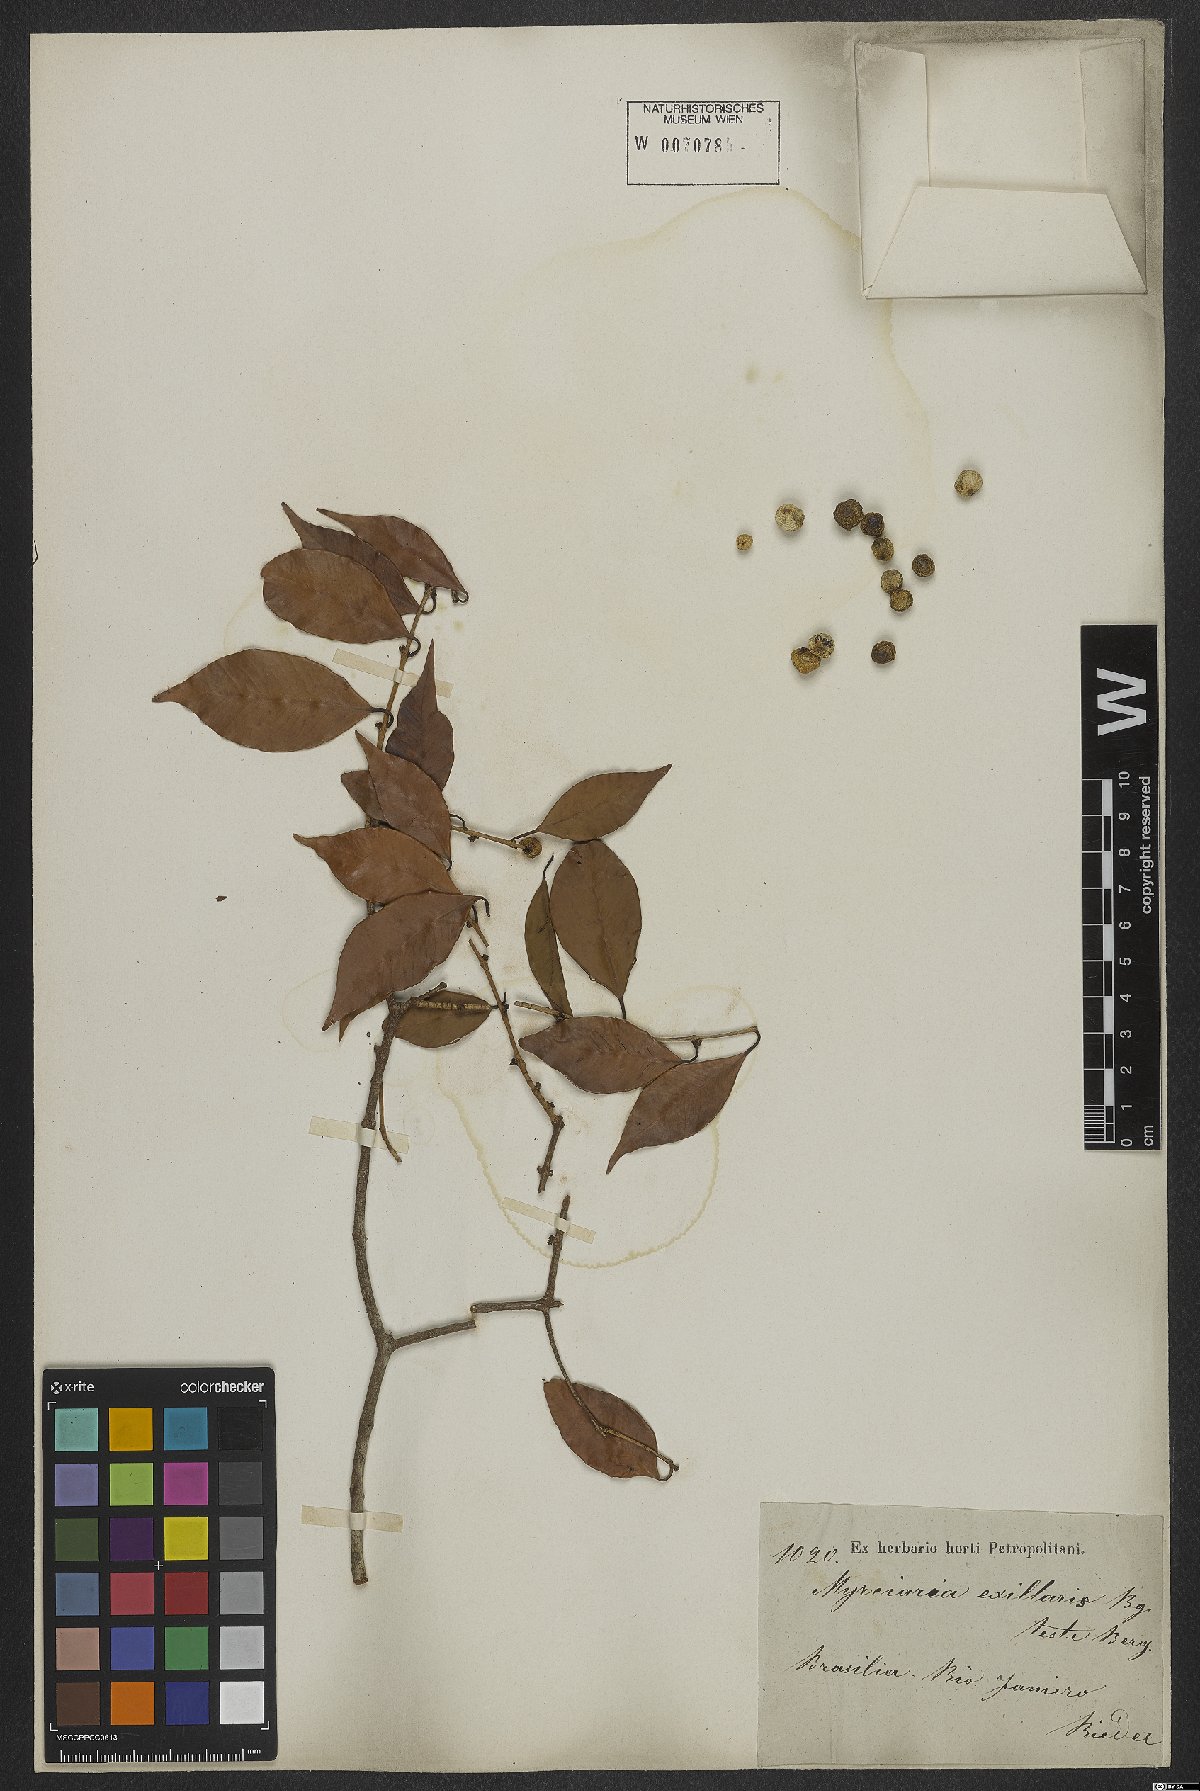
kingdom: Plantae
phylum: Tracheophyta
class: Magnoliopsida
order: Myrtales
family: Myrtaceae
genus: Myrciaria
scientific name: Myrciaria axillaris
